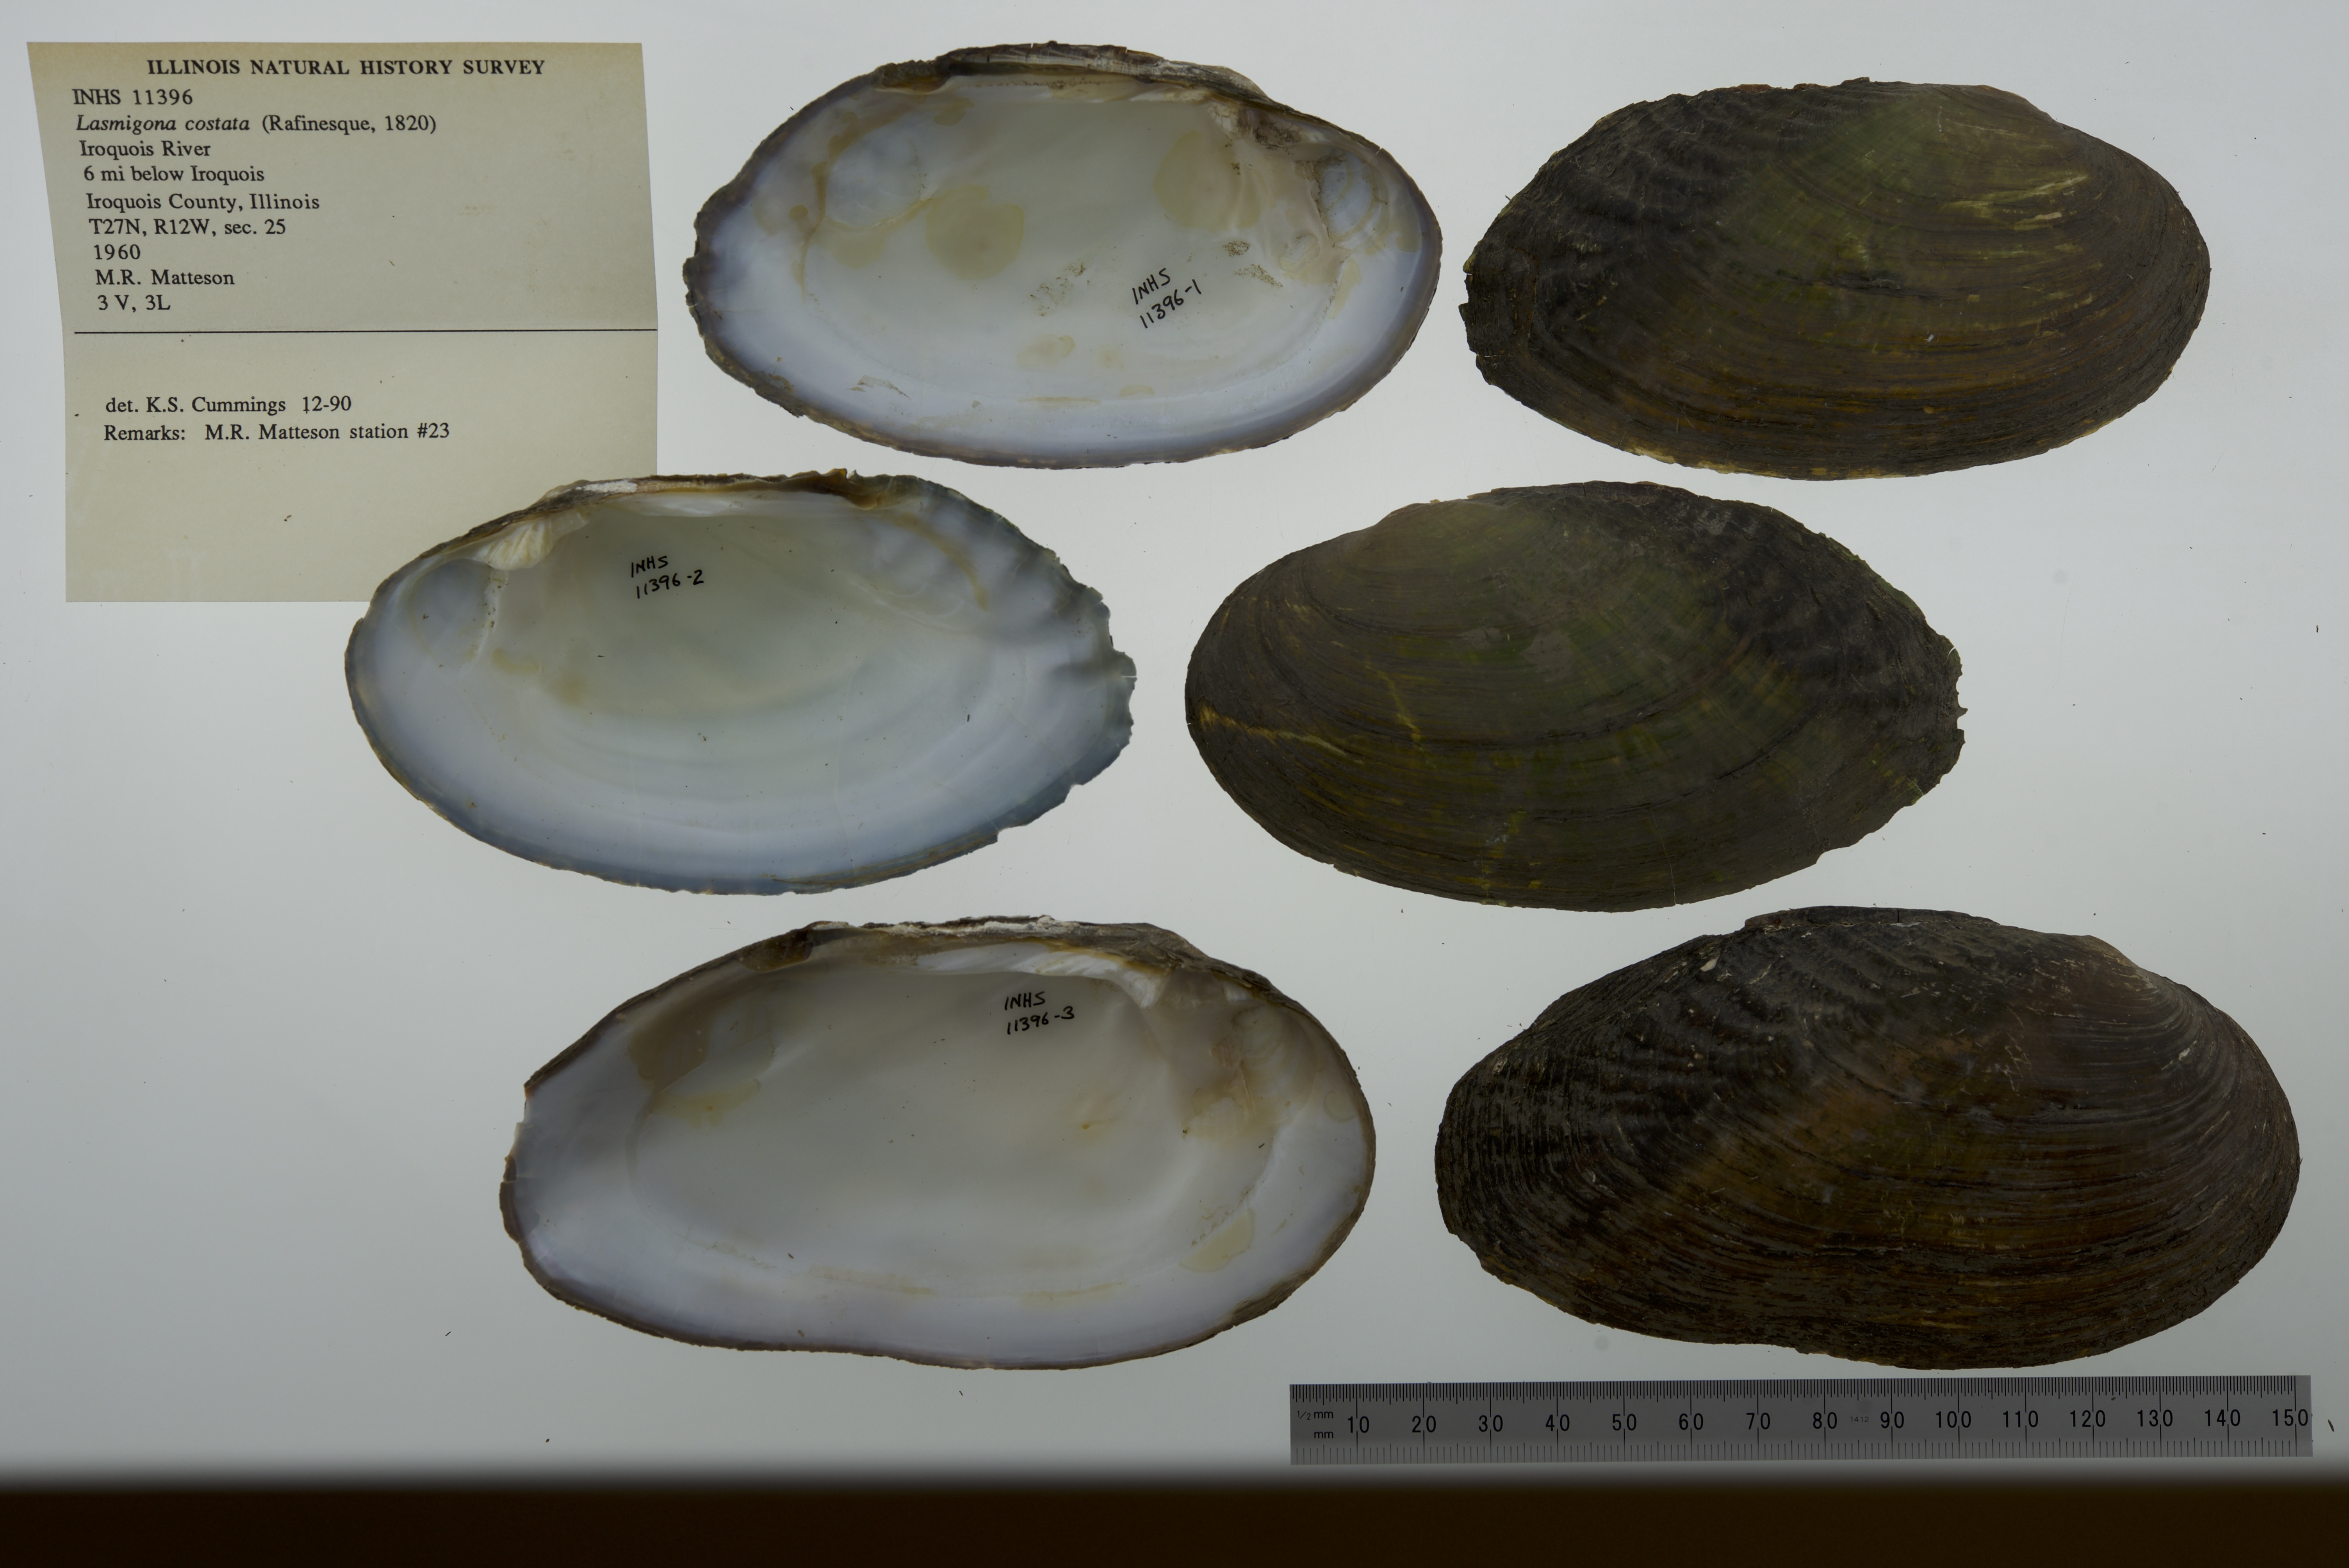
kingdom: Animalia
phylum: Mollusca
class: Bivalvia
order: Unionida
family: Unionidae
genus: Lasmigona
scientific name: Lasmigona costata
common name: Flutedshell
